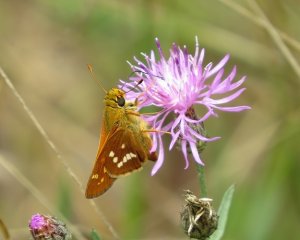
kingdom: Animalia
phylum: Arthropoda
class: Insecta
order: Lepidoptera
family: Hesperiidae
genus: Hesperia
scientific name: Hesperia leonardus
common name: Leonard's Skipper
